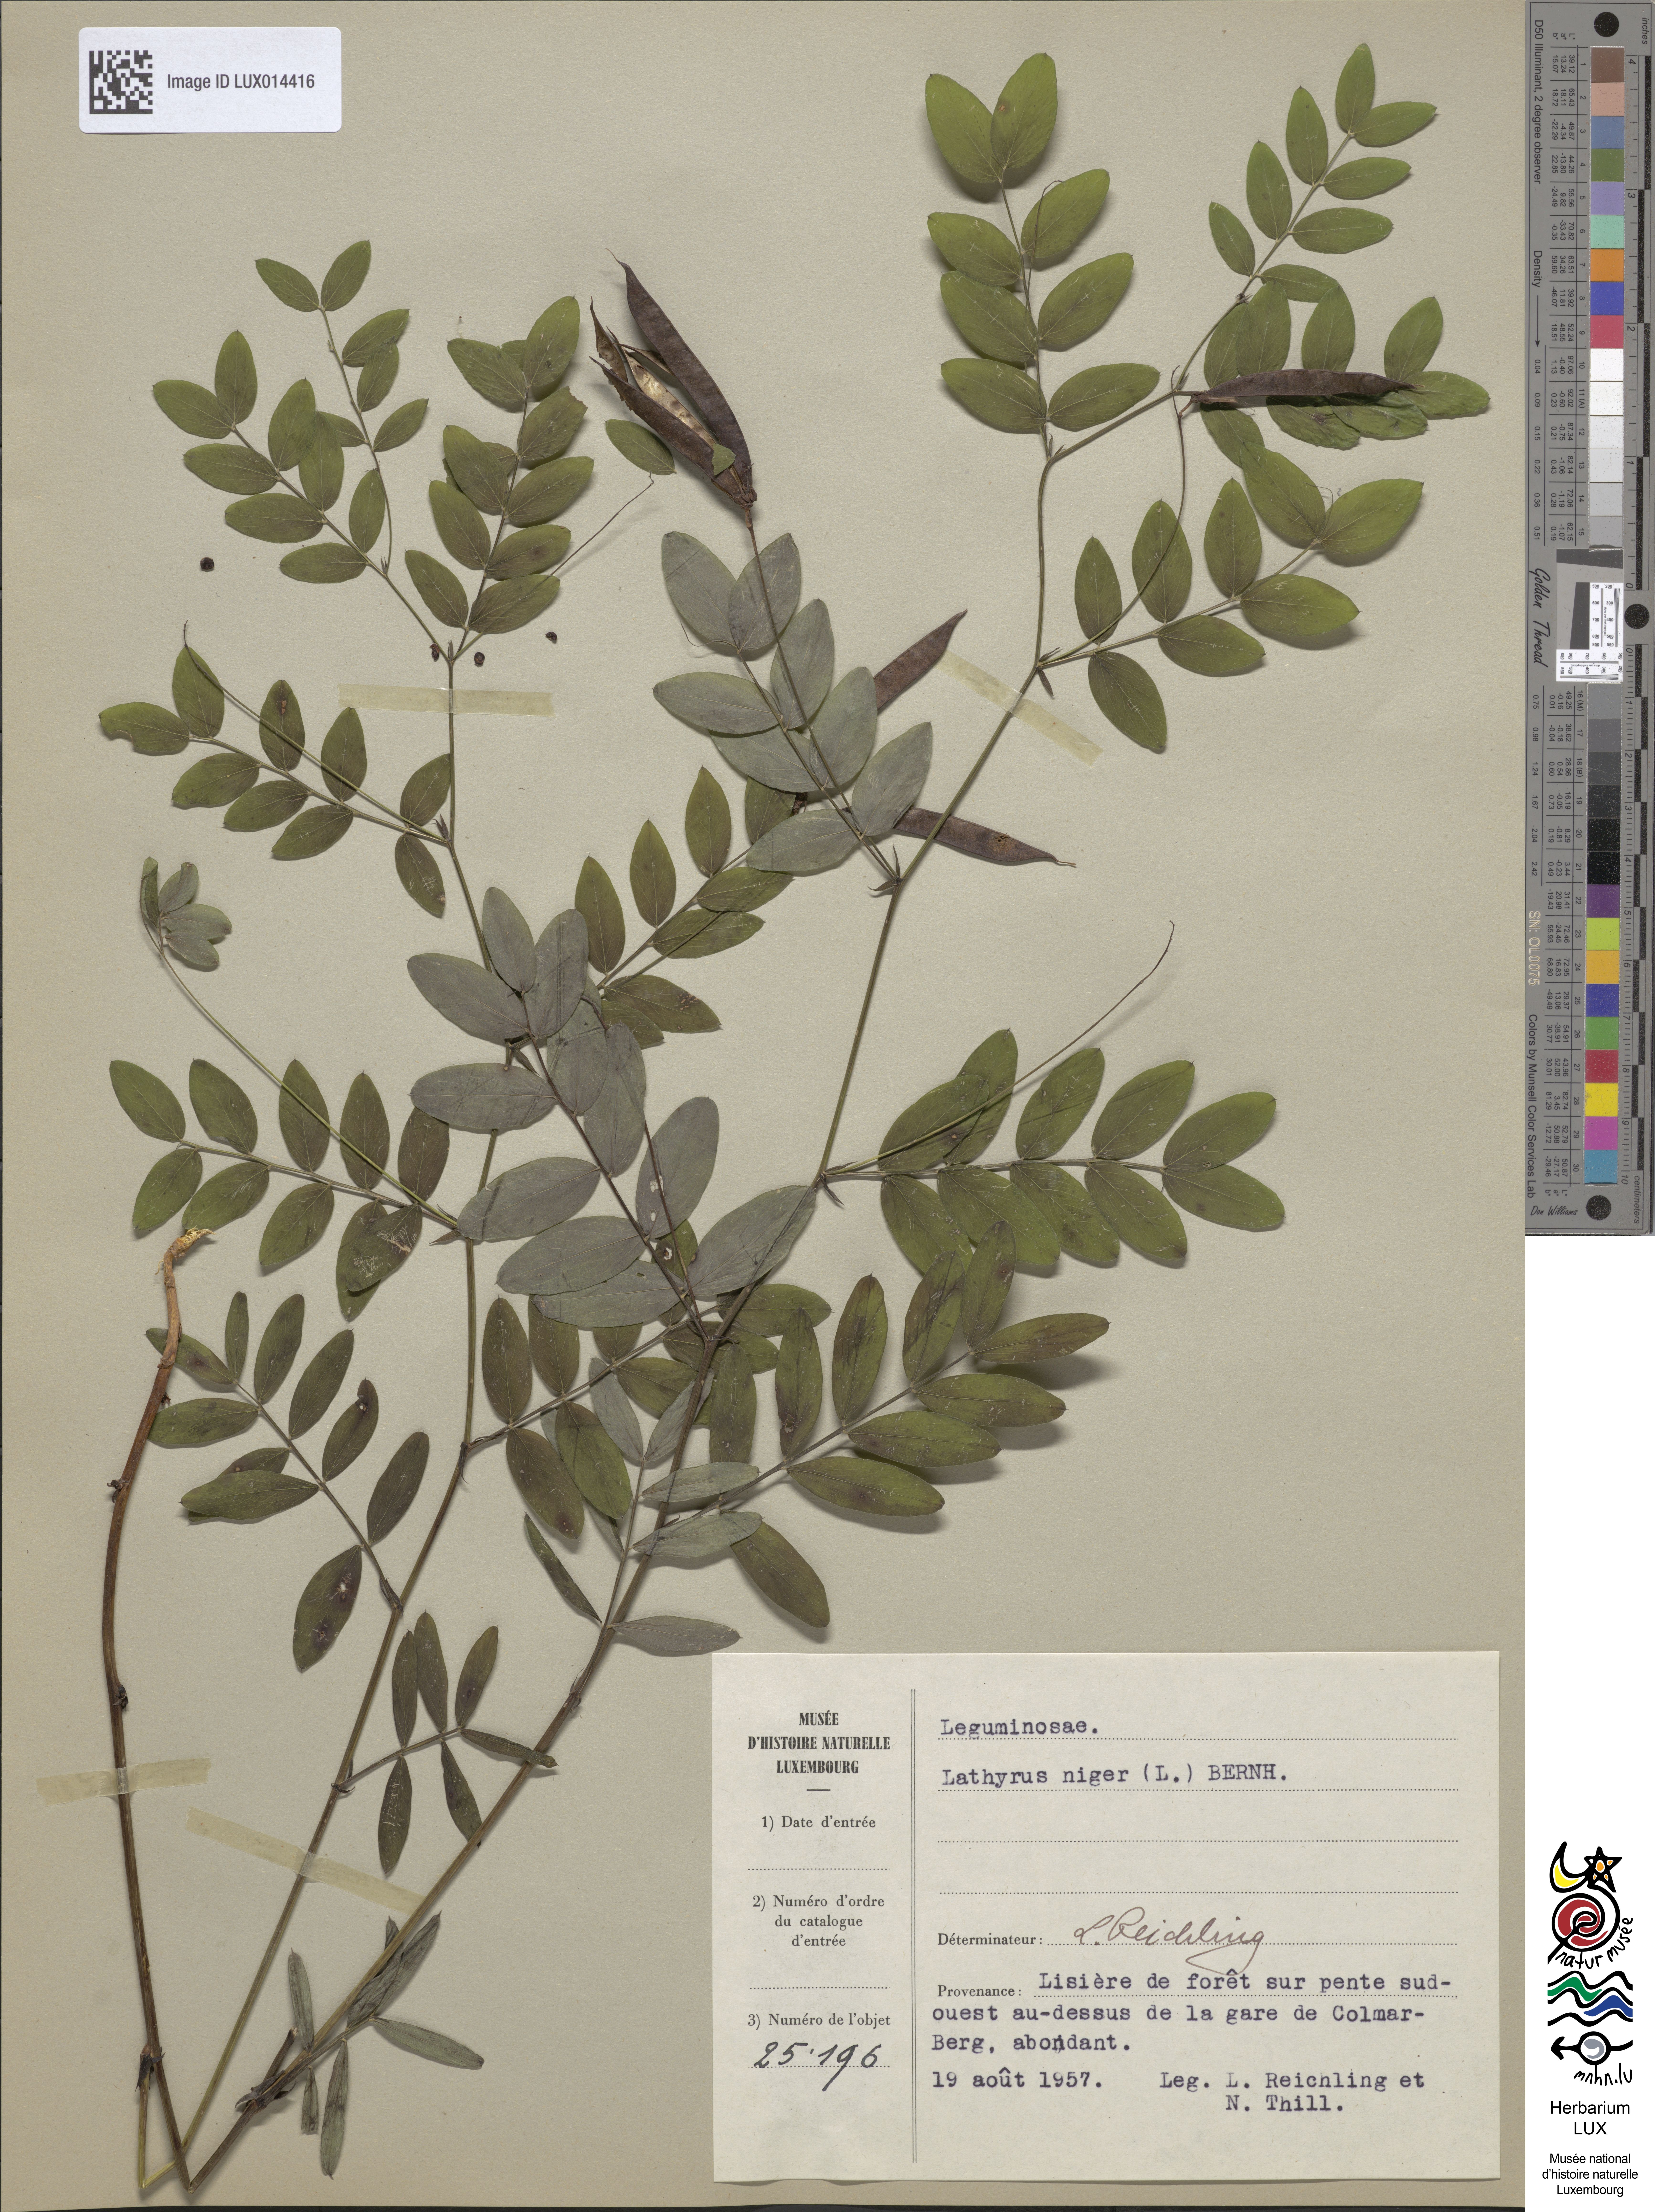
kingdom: Plantae
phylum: Tracheophyta
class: Magnoliopsida
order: Fabales
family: Fabaceae
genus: Lathyrus
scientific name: Lathyrus niger
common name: Black pea
